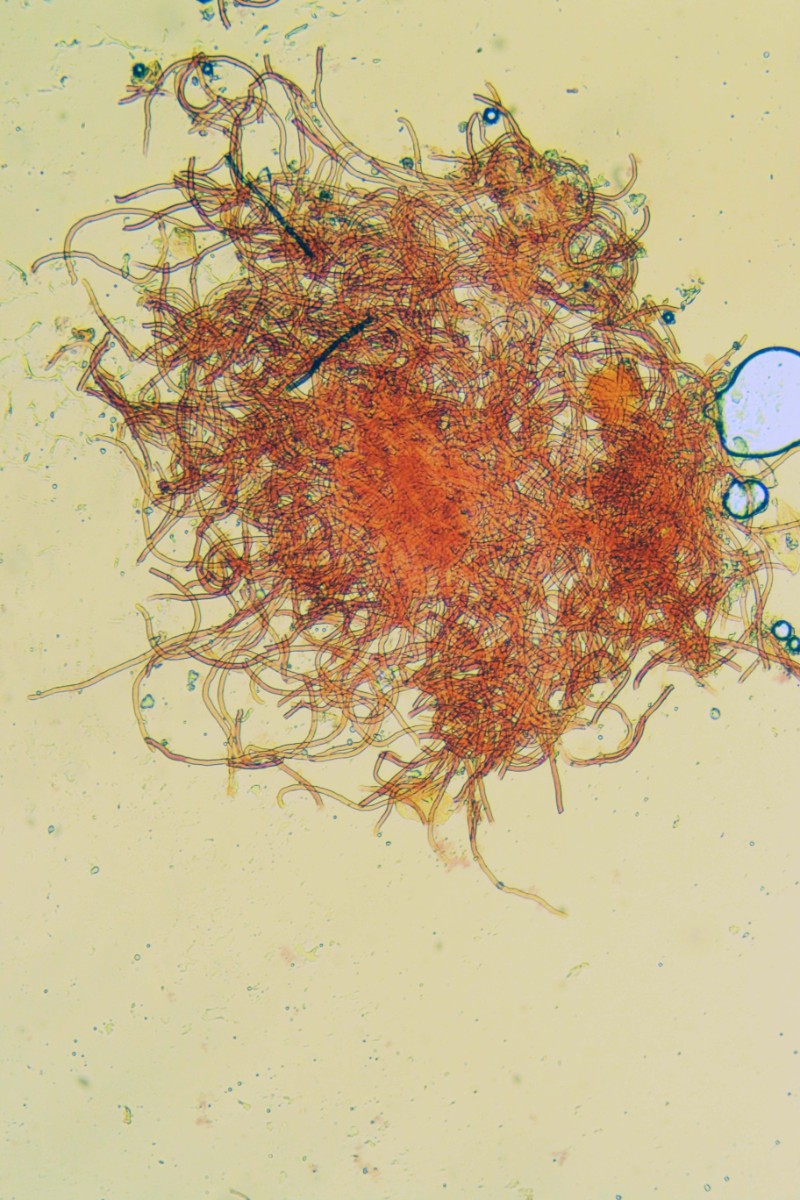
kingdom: Fungi
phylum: Ascomycota
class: Pezizomycetes
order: Pezizales
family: Sarcoscyphaceae
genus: Sarcoscypha
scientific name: Sarcoscypha austriaca
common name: krølhåret pragtbæger
